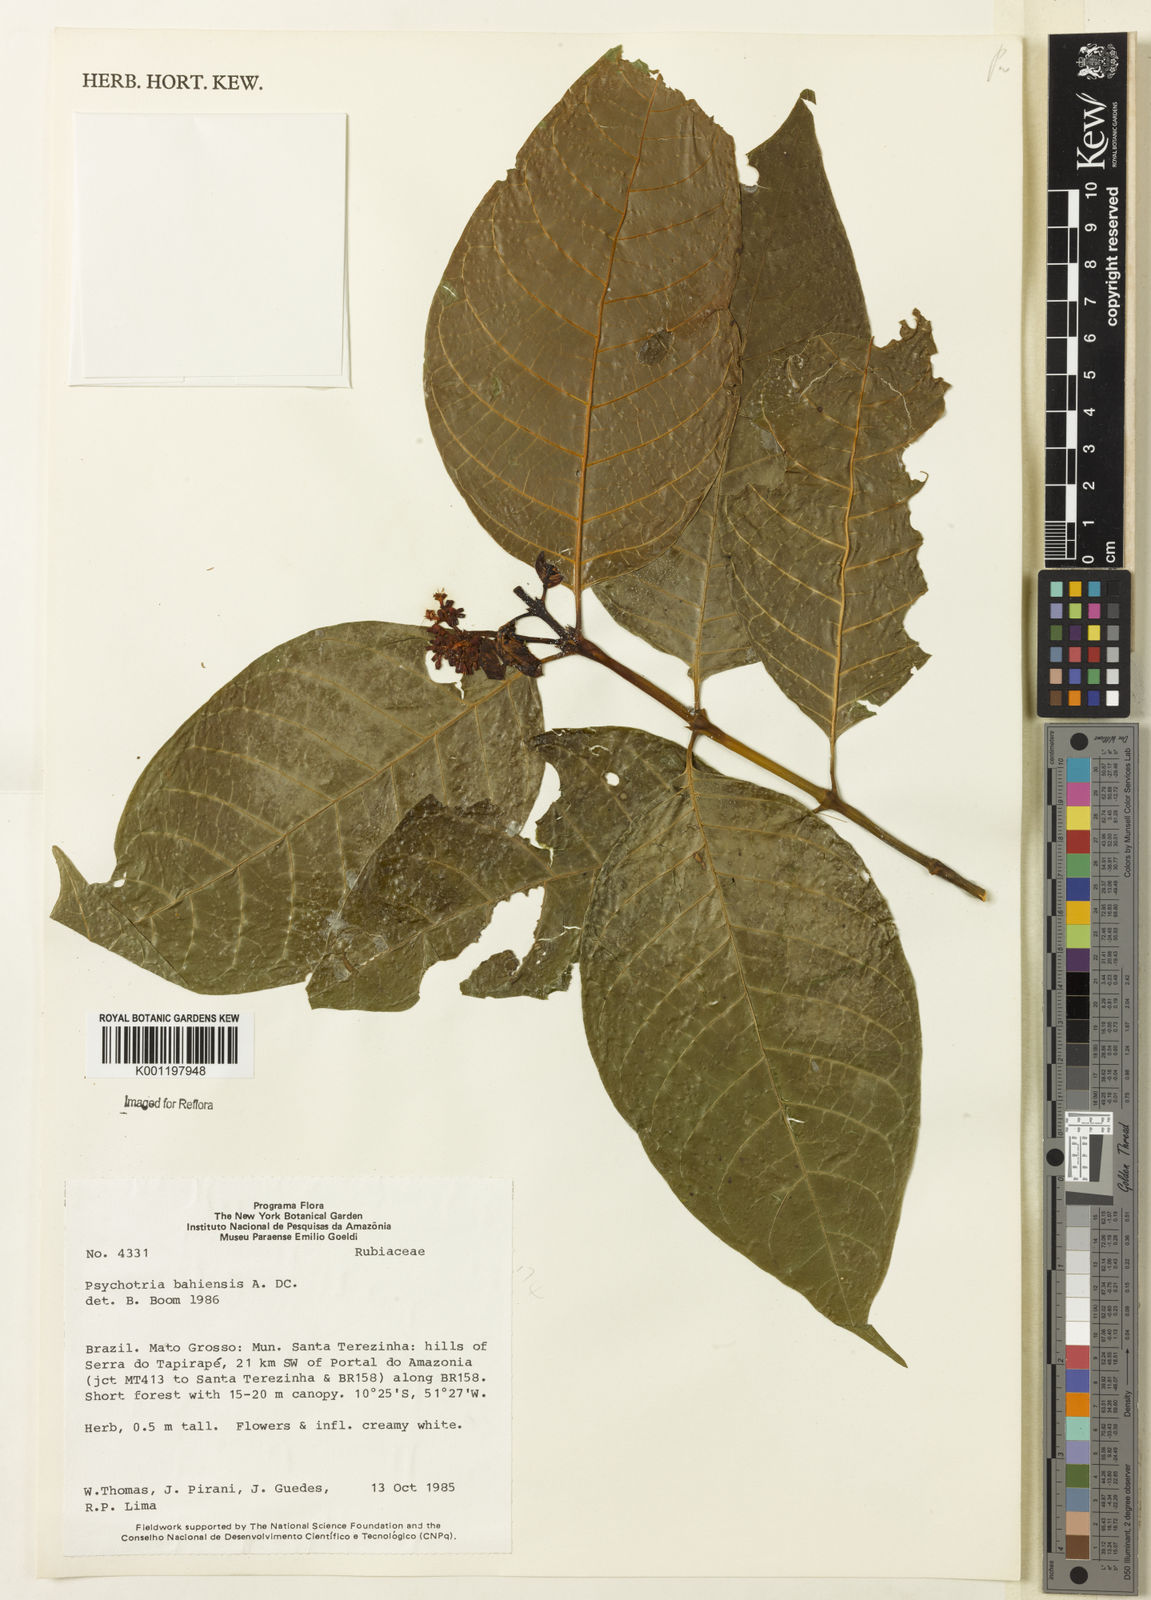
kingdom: Plantae
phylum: Tracheophyta
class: Magnoliopsida
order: Gentianales
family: Rubiaceae
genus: Psychotria
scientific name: Psychotria bahiensis
